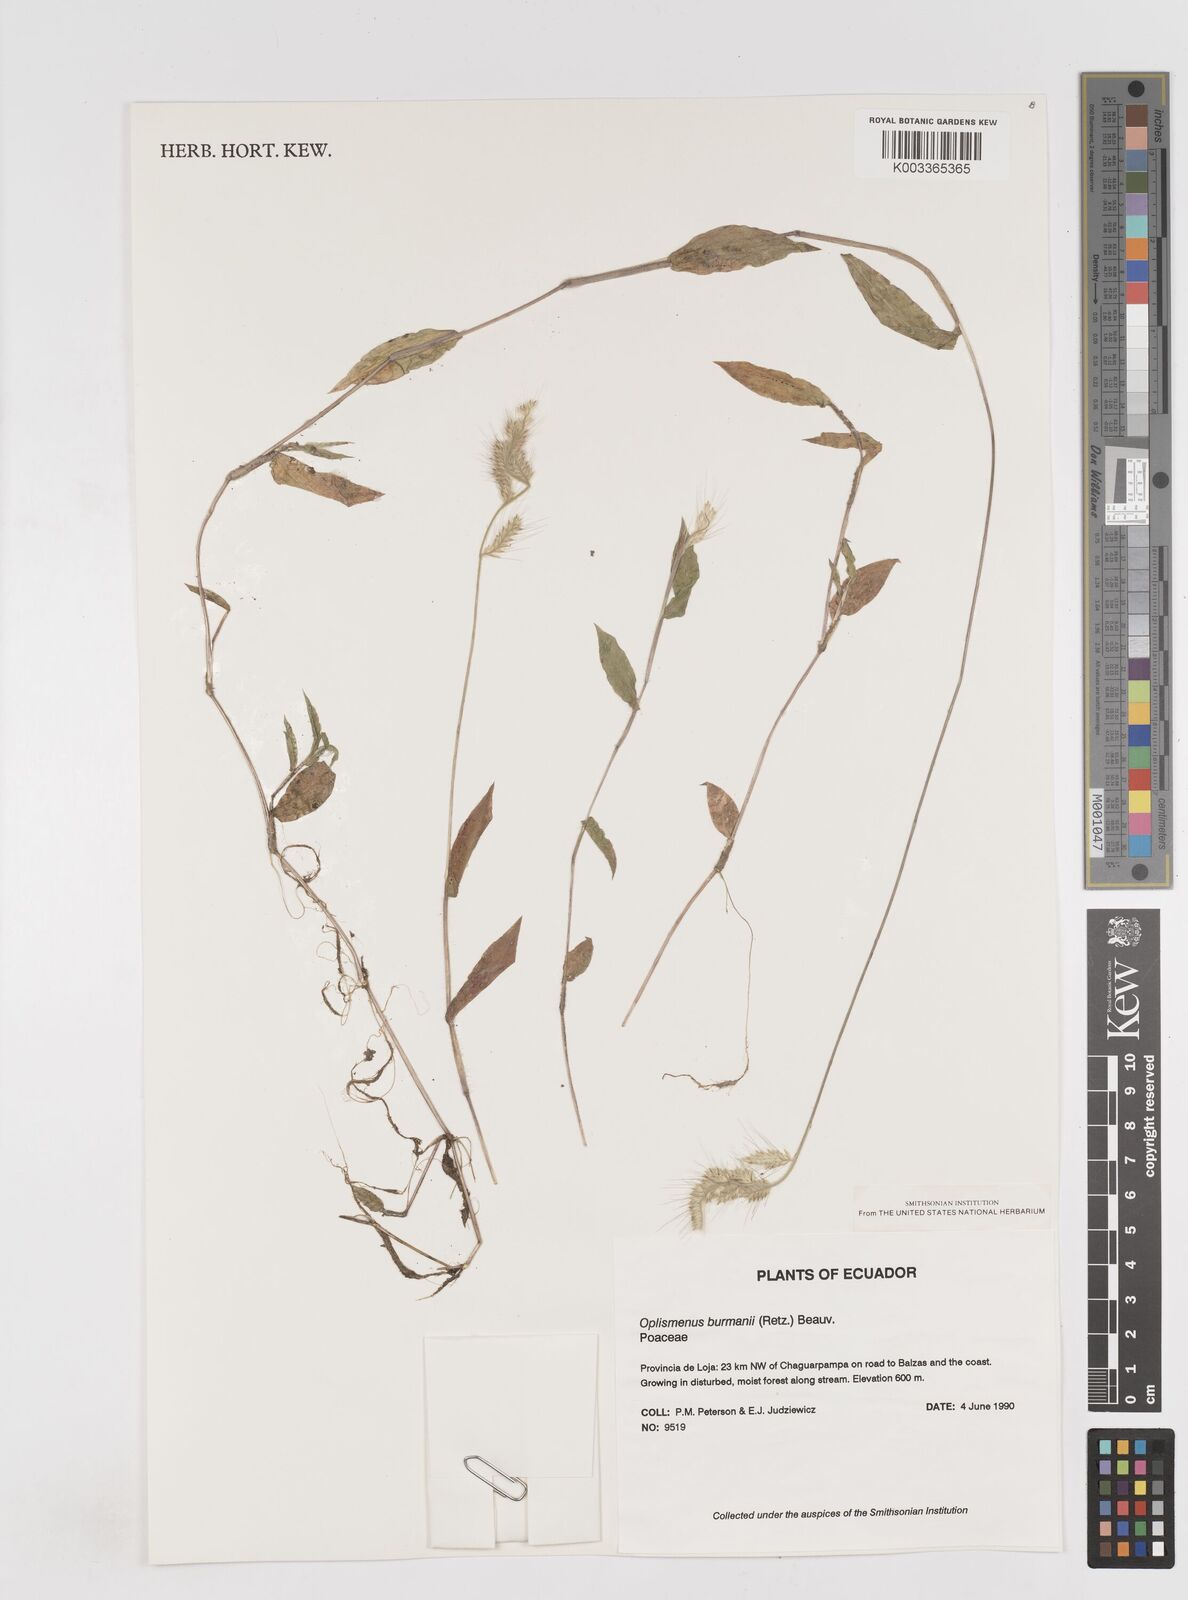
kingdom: Plantae
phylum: Tracheophyta
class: Liliopsida
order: Poales
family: Poaceae
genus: Oplismenus
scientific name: Oplismenus burmanni
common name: Burmann's basketgrass
